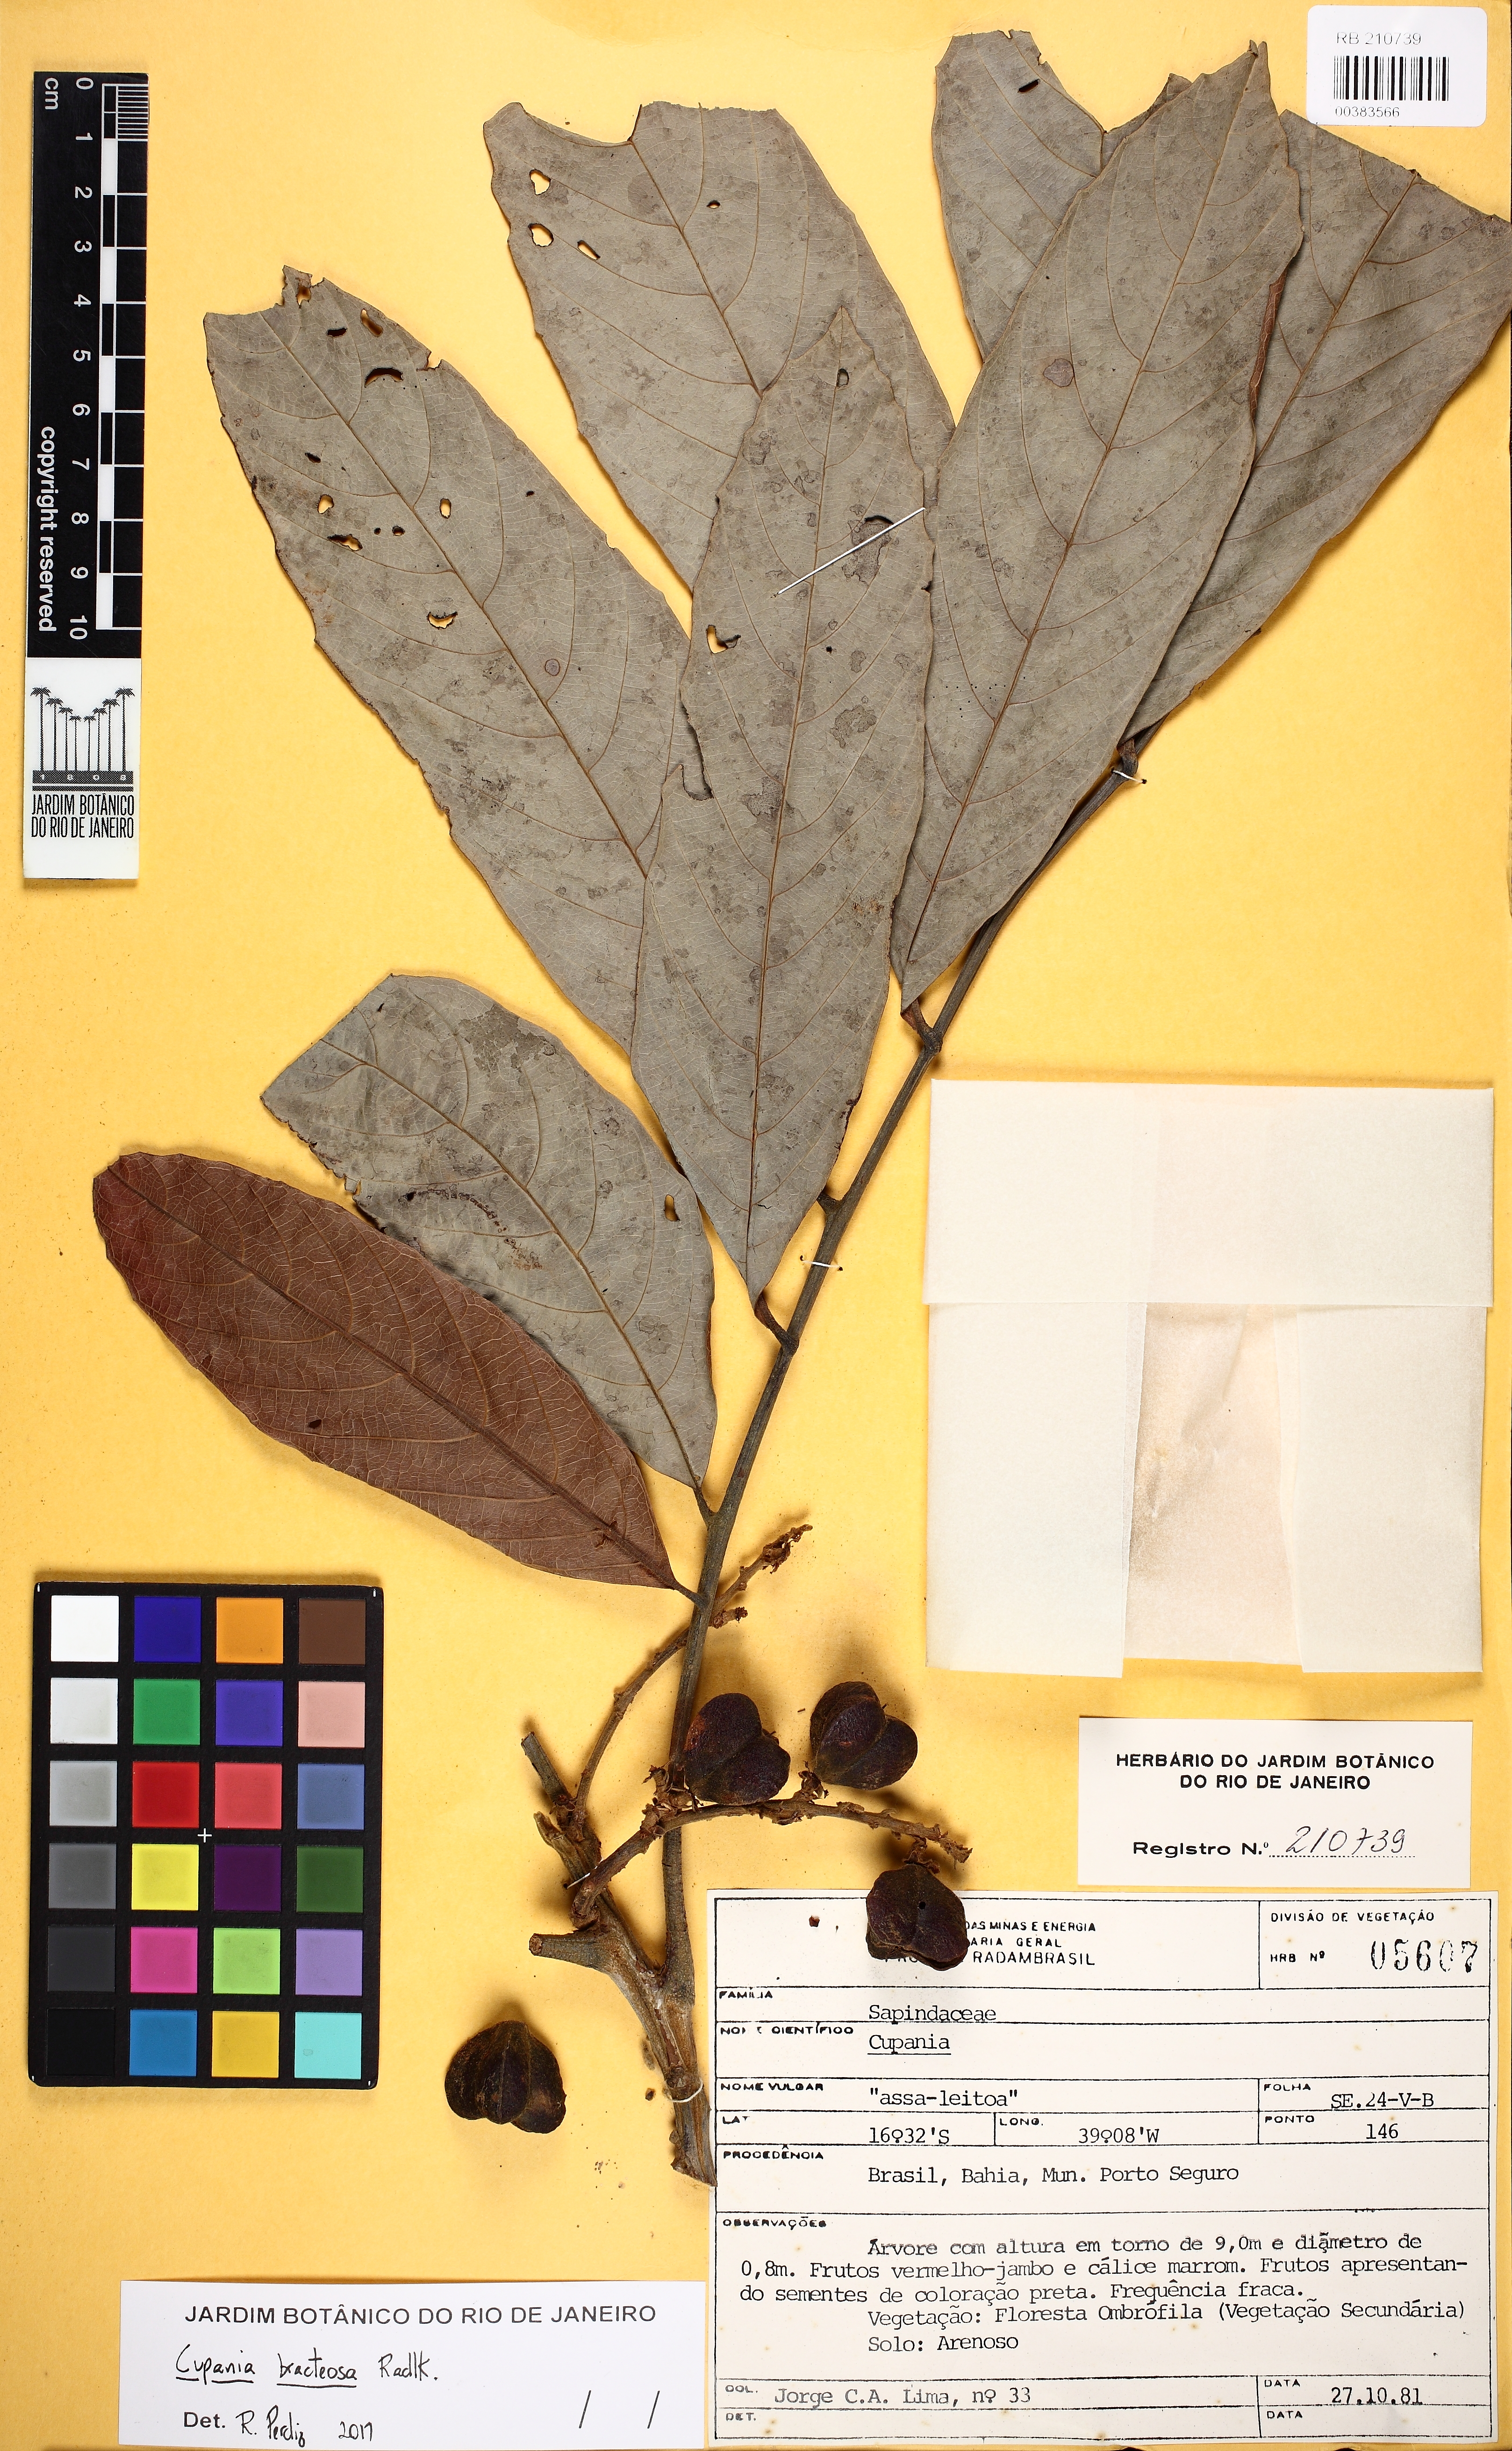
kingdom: Plantae
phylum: Tracheophyta
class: Magnoliopsida
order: Sapindales
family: Sapindaceae
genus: Cupania
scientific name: Cupania bracteosa
